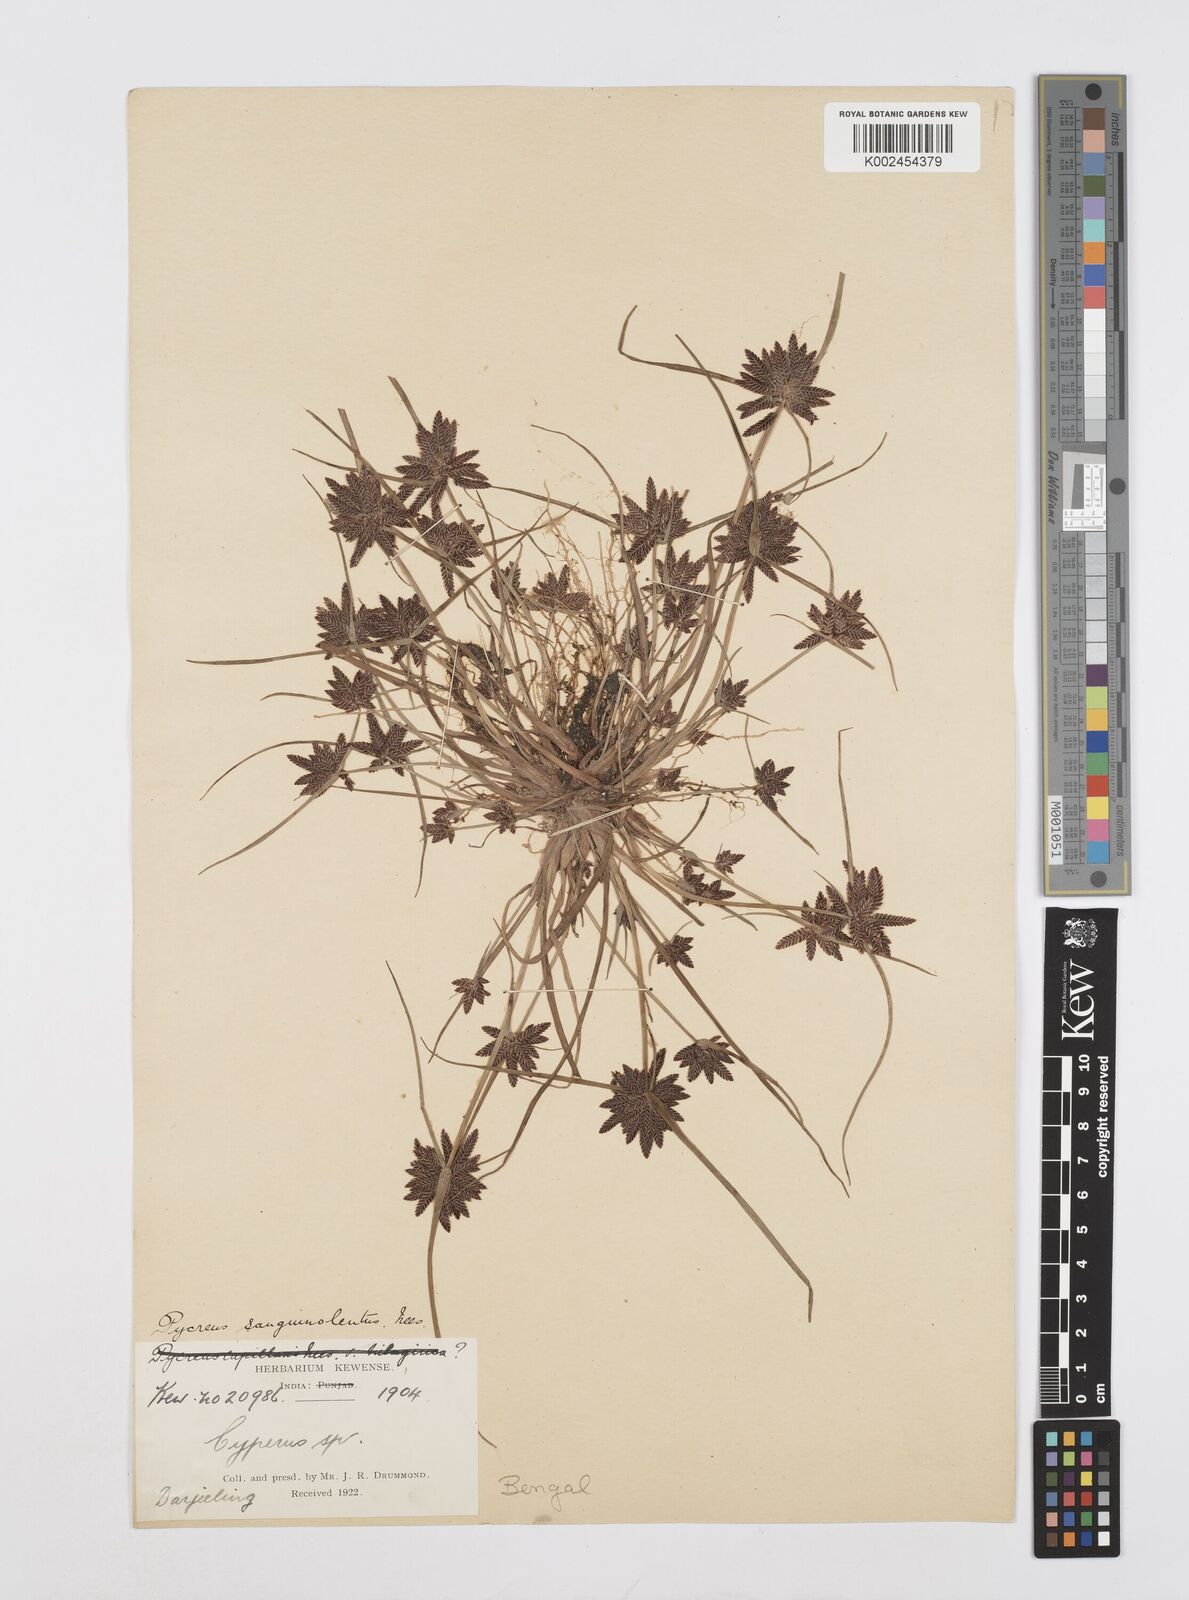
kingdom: Plantae
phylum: Tracheophyta
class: Liliopsida
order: Poales
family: Cyperaceae
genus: Cyperus
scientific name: Cyperus sanguinolentus
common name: Purpleglume flatsedge
